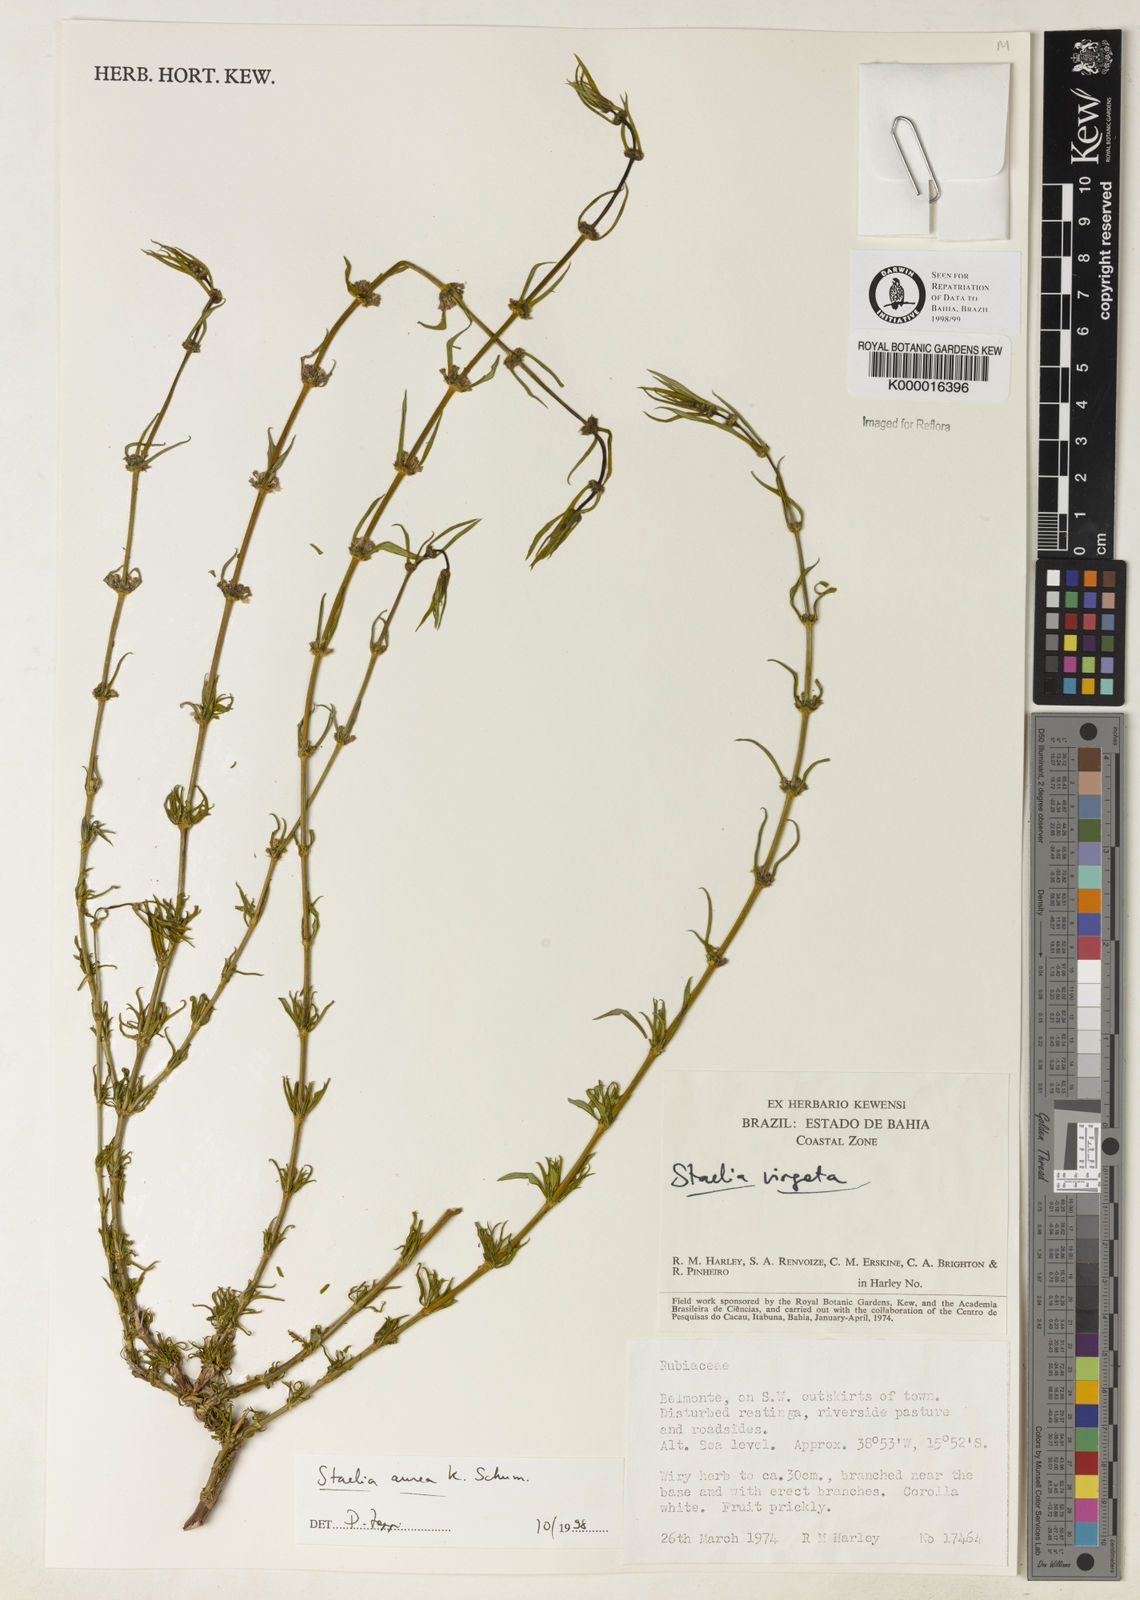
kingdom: Plantae
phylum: Tracheophyta
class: Magnoliopsida
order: Gentianales
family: Rubiaceae
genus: Staelia
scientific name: Staelia aurea
